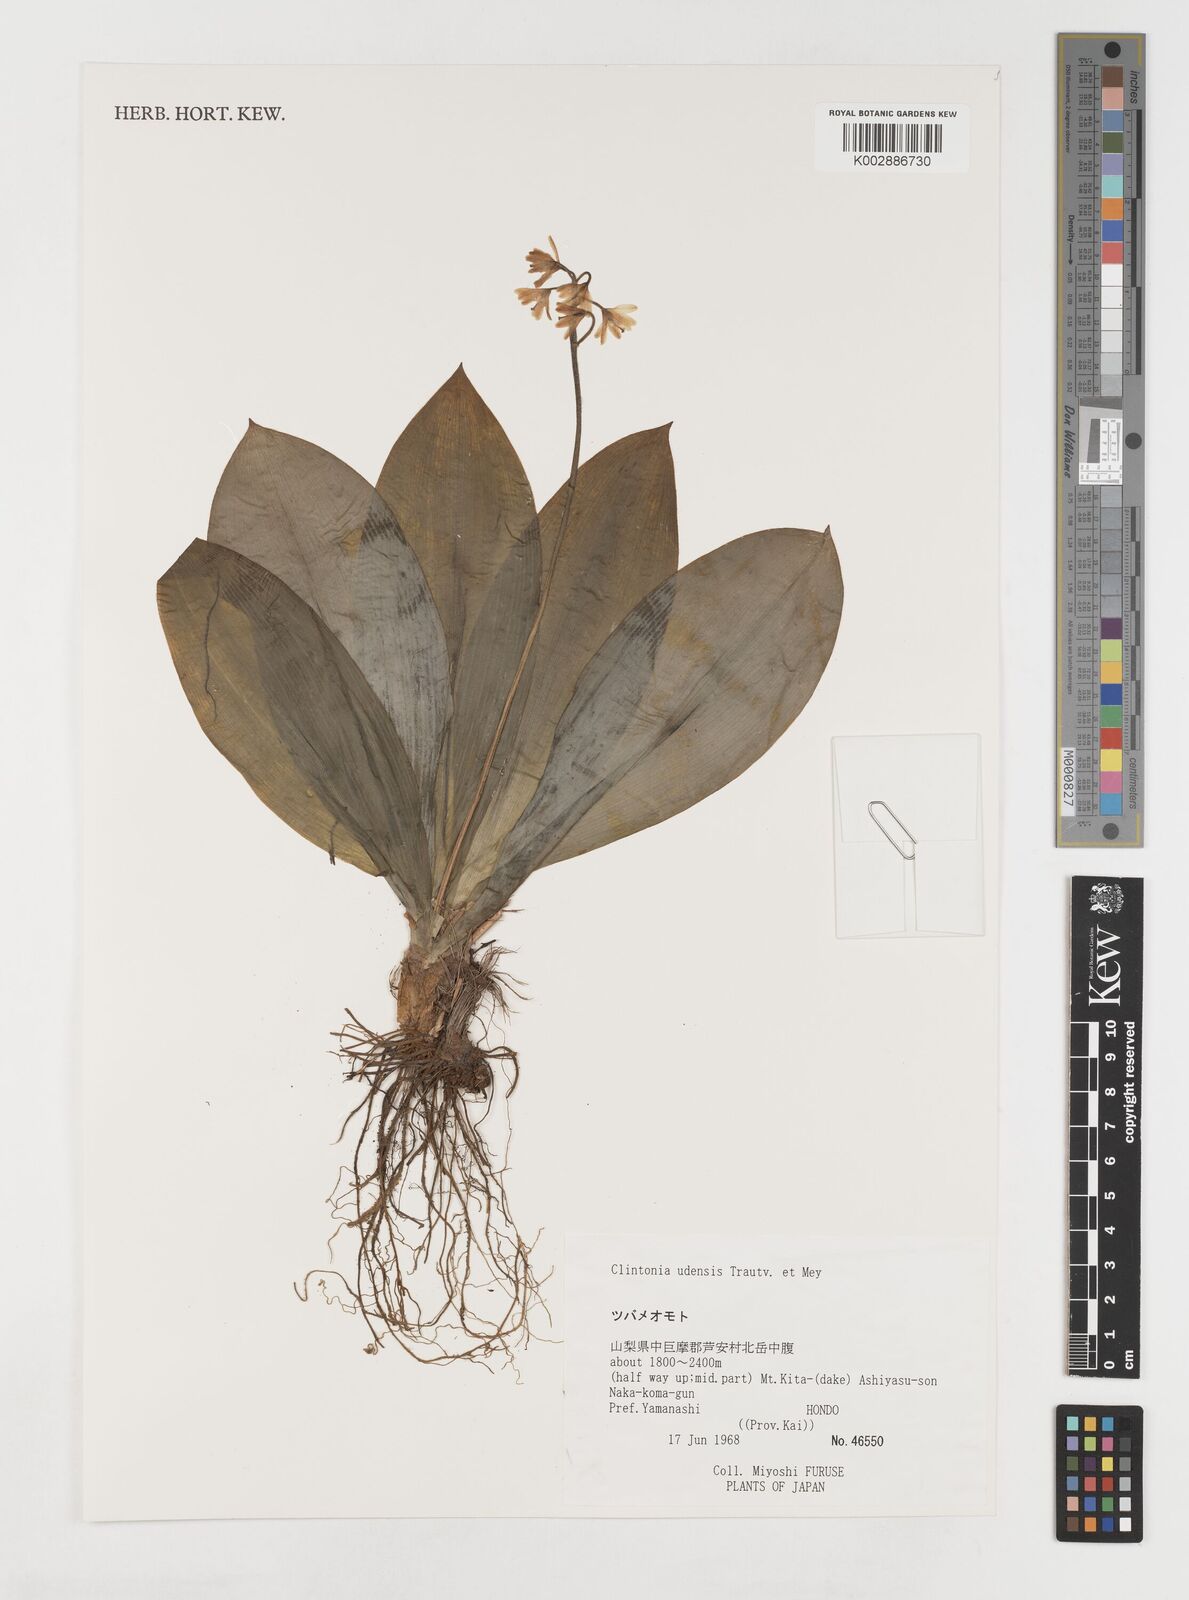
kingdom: Plantae
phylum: Tracheophyta
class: Liliopsida
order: Liliales
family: Liliaceae
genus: Clintonia
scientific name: Clintonia udensis
